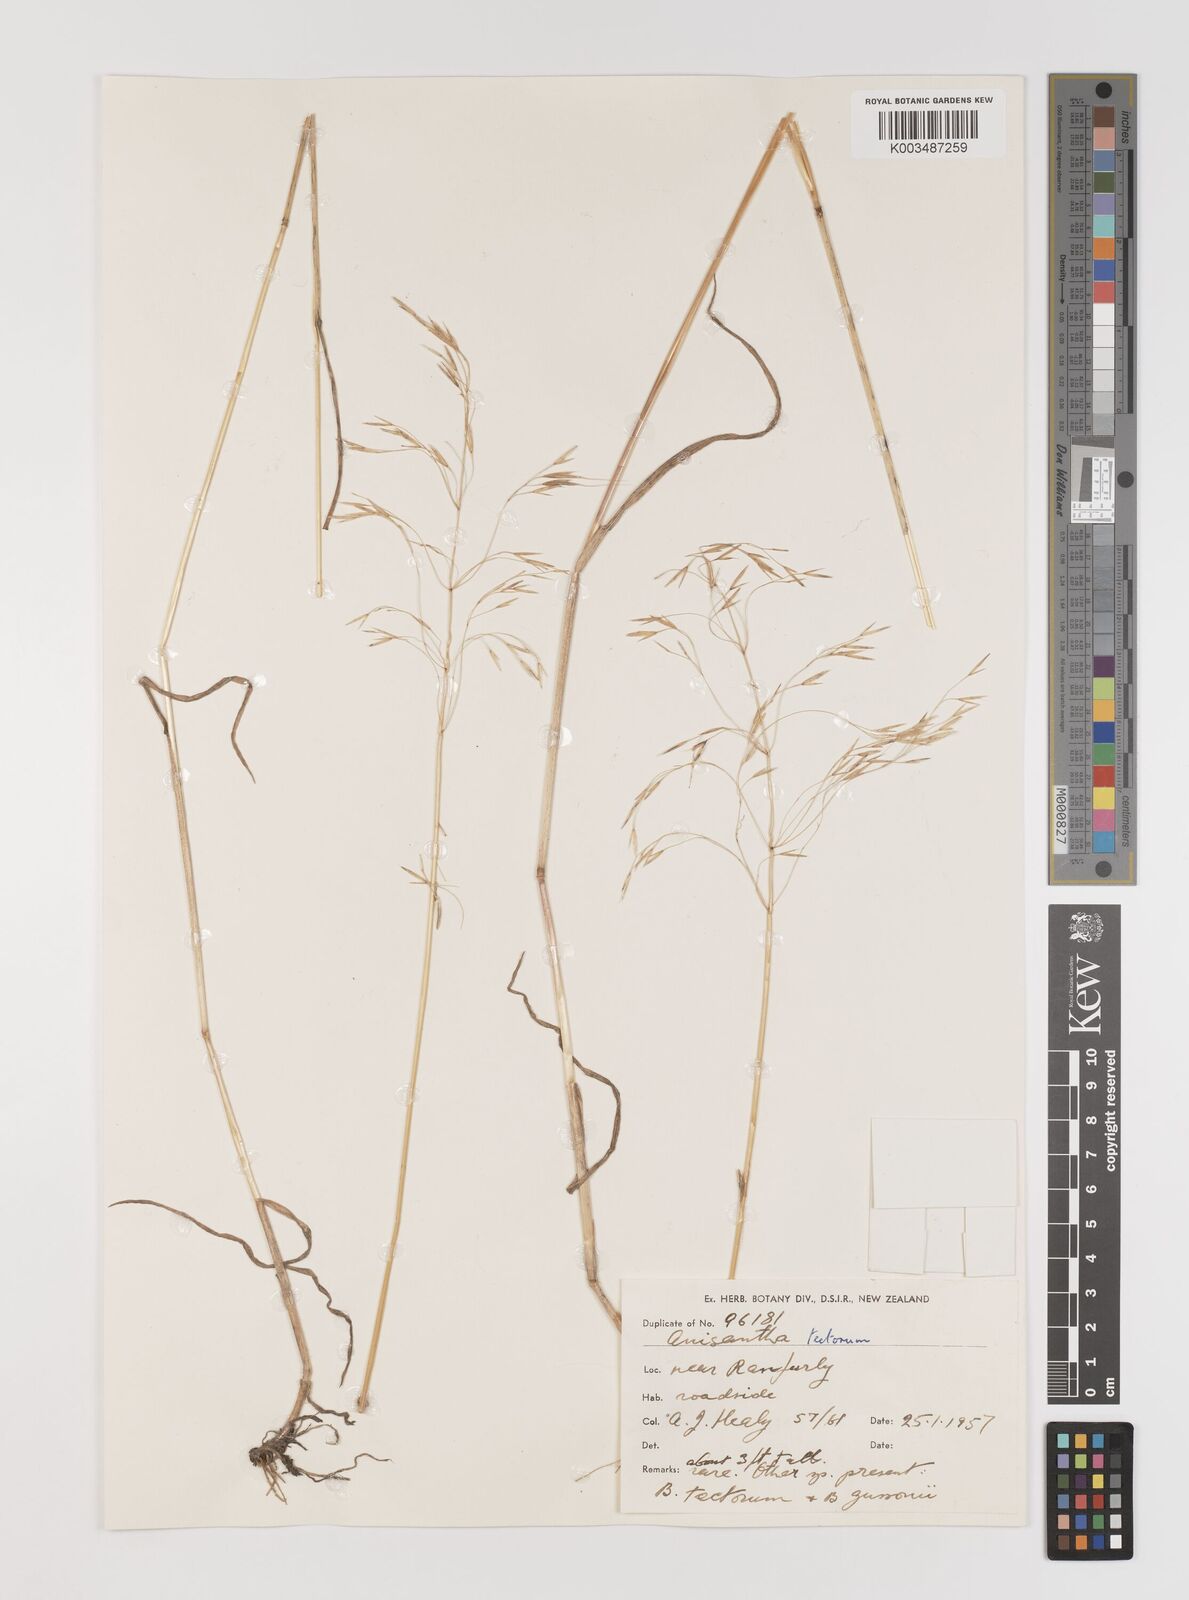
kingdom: Plantae
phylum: Tracheophyta
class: Liliopsida
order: Poales
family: Poaceae
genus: Bromus
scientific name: Bromus tectorum
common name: Cheatgrass
